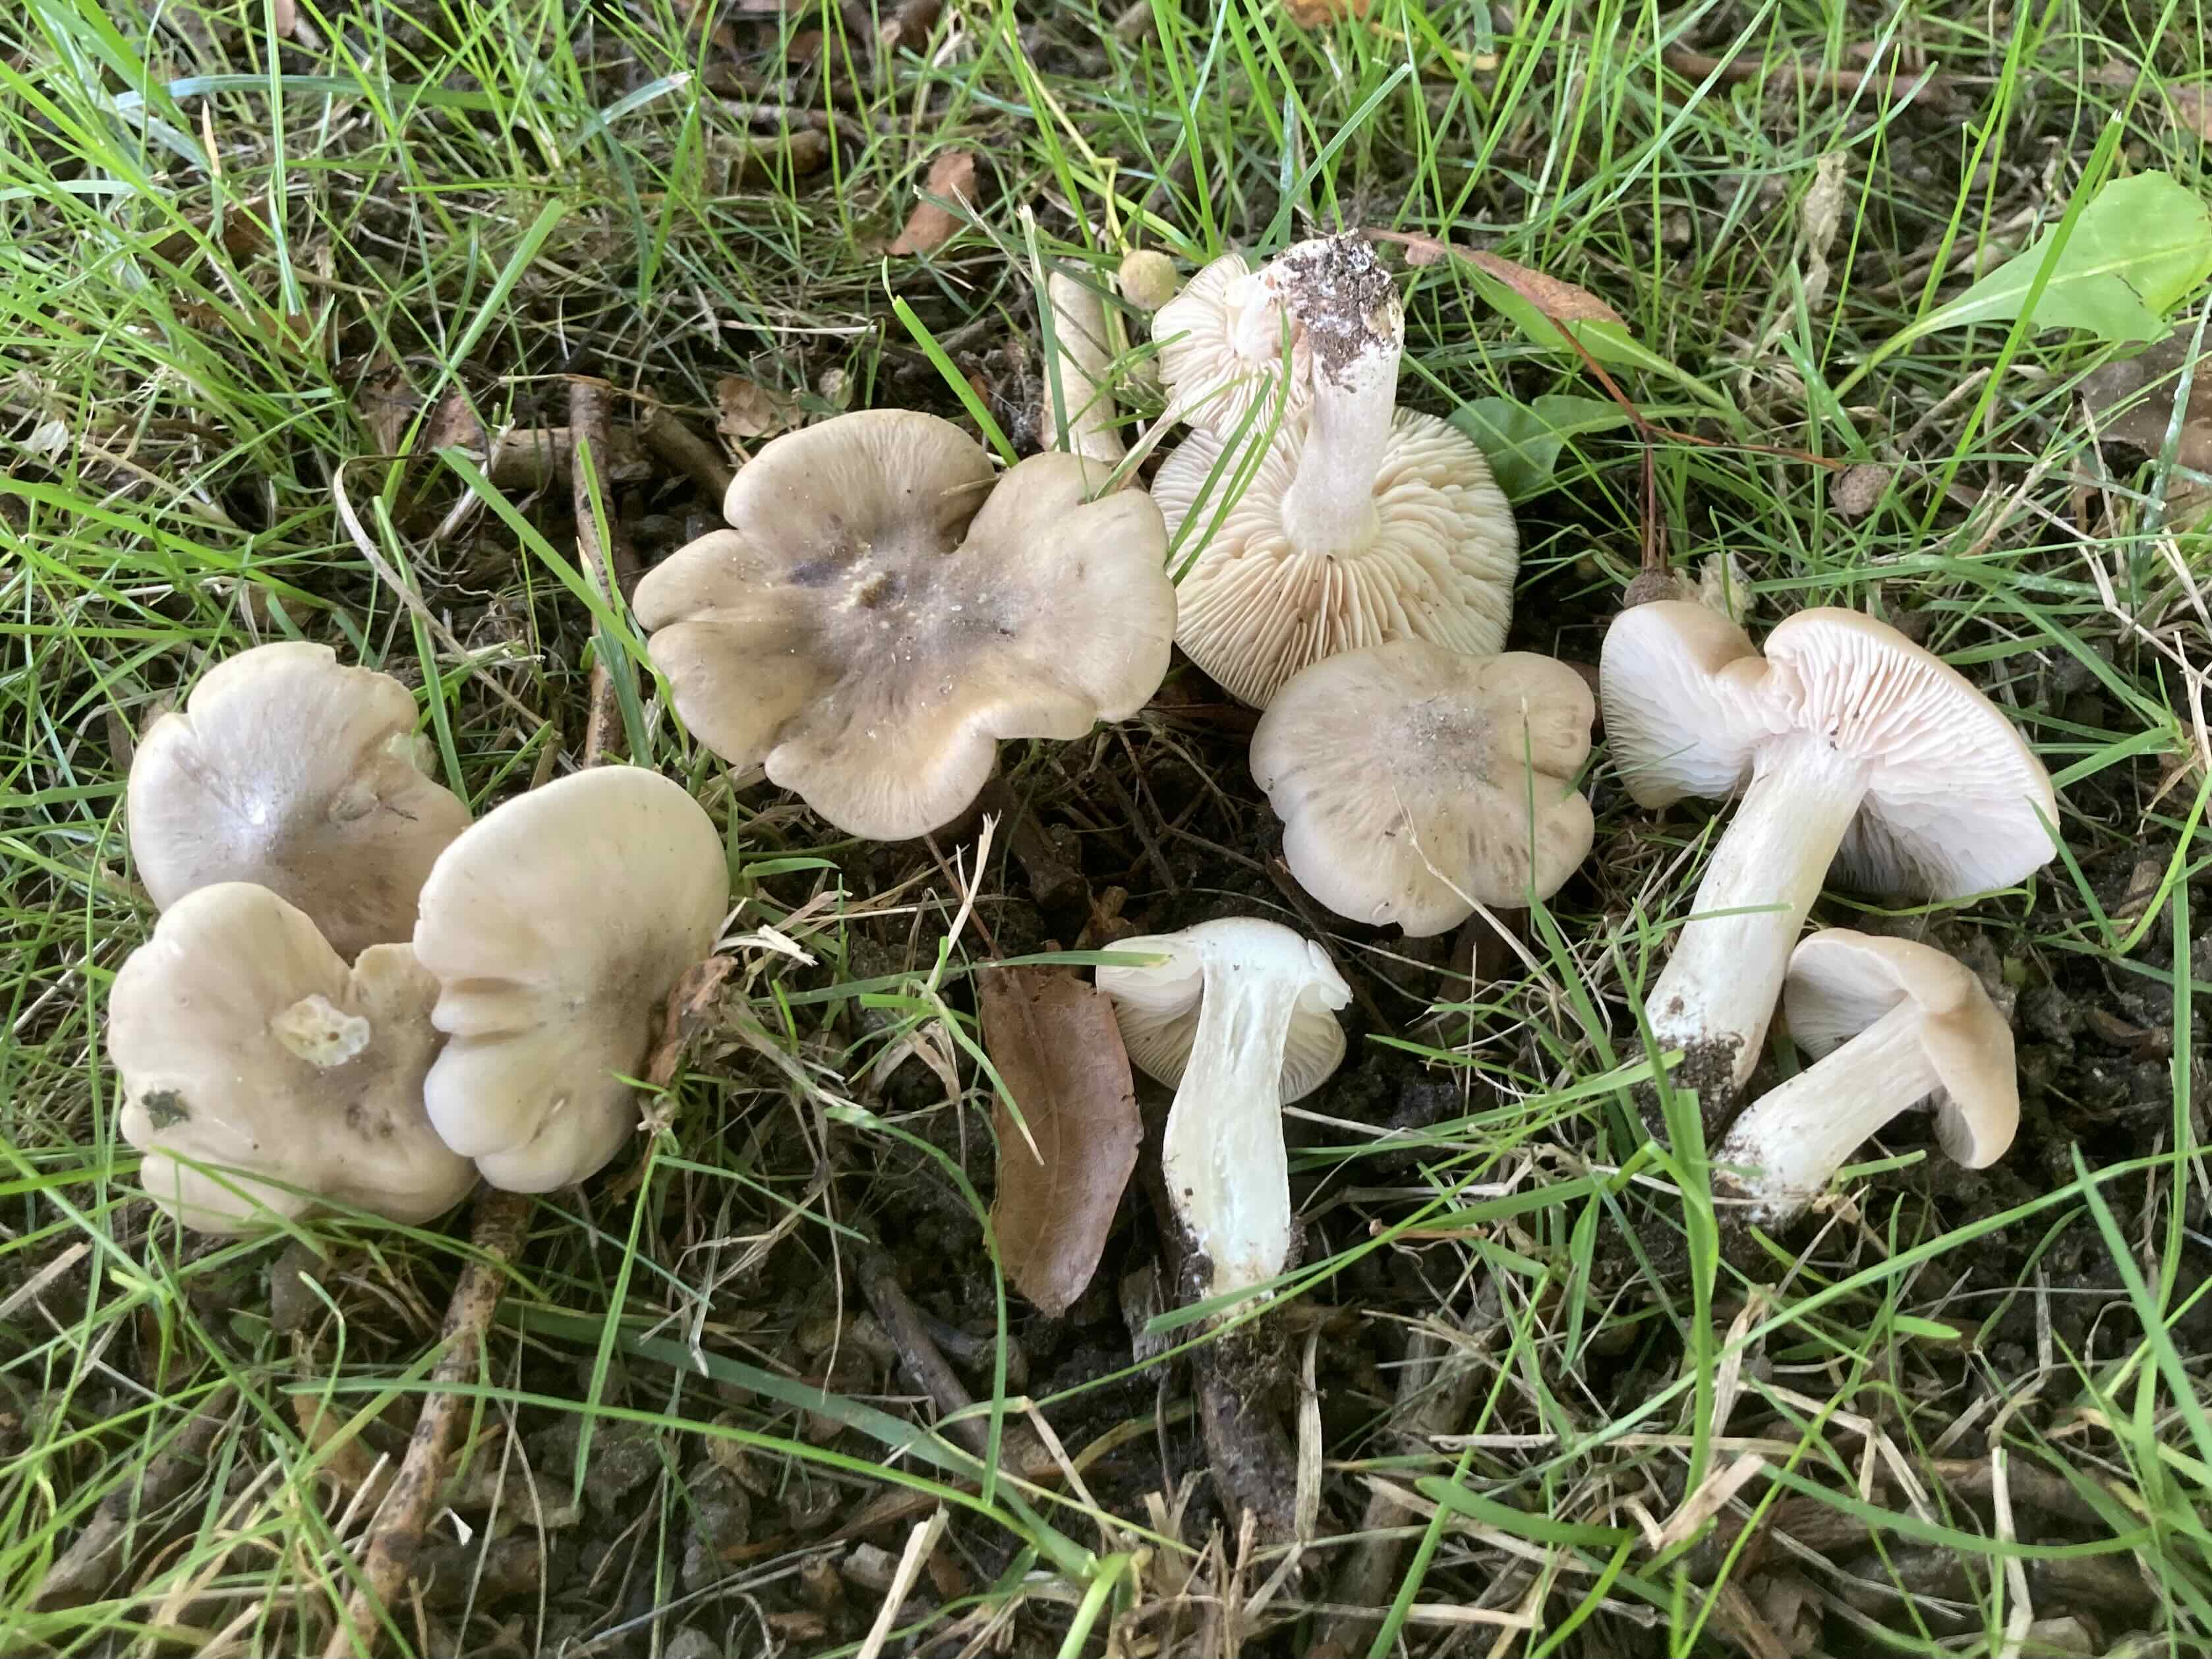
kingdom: Fungi
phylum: Basidiomycota
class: Agaricomycetes
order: Agaricales
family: Entolomataceae
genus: Entoloma
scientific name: Entoloma lividoalbum
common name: lysstokket rødblad
